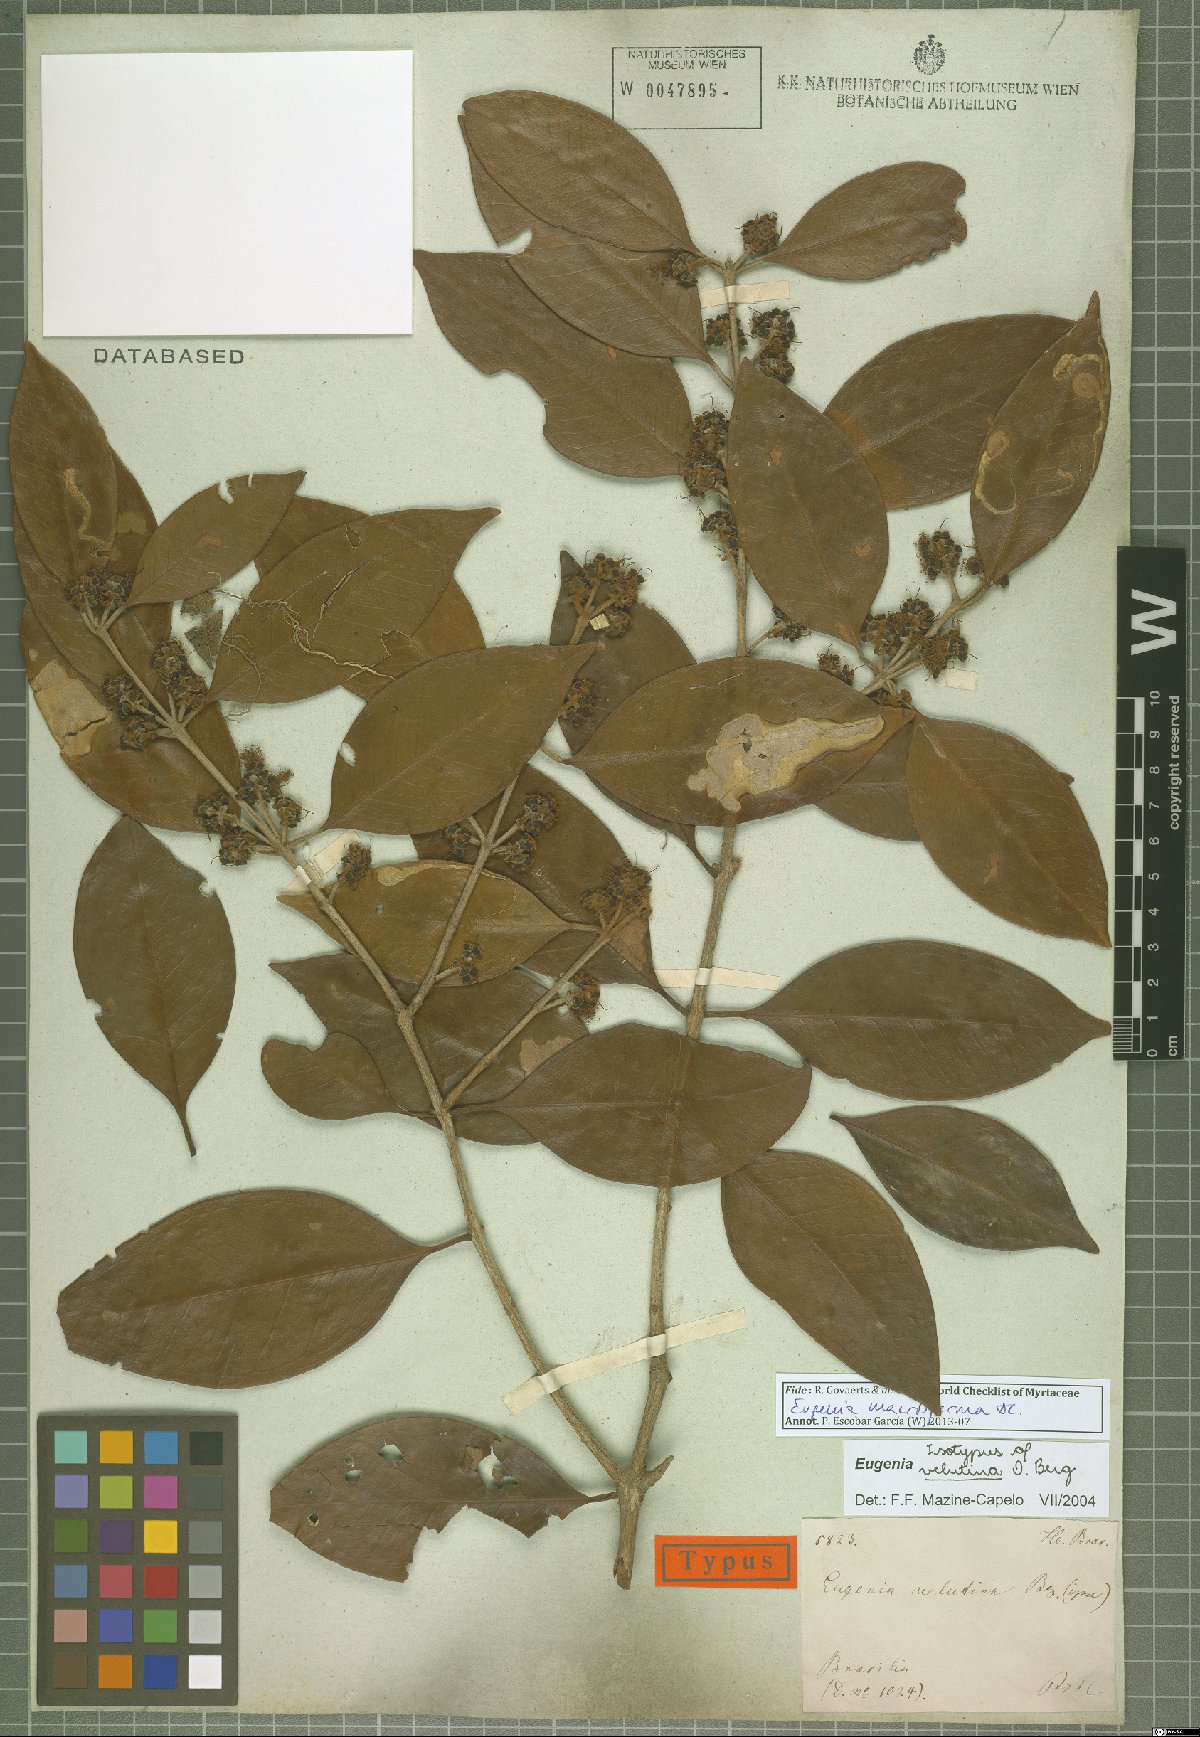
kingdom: Plantae
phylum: Tracheophyta
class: Magnoliopsida
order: Myrtales
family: Myrtaceae
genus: Eugenia
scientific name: Eugenia macrosperma
